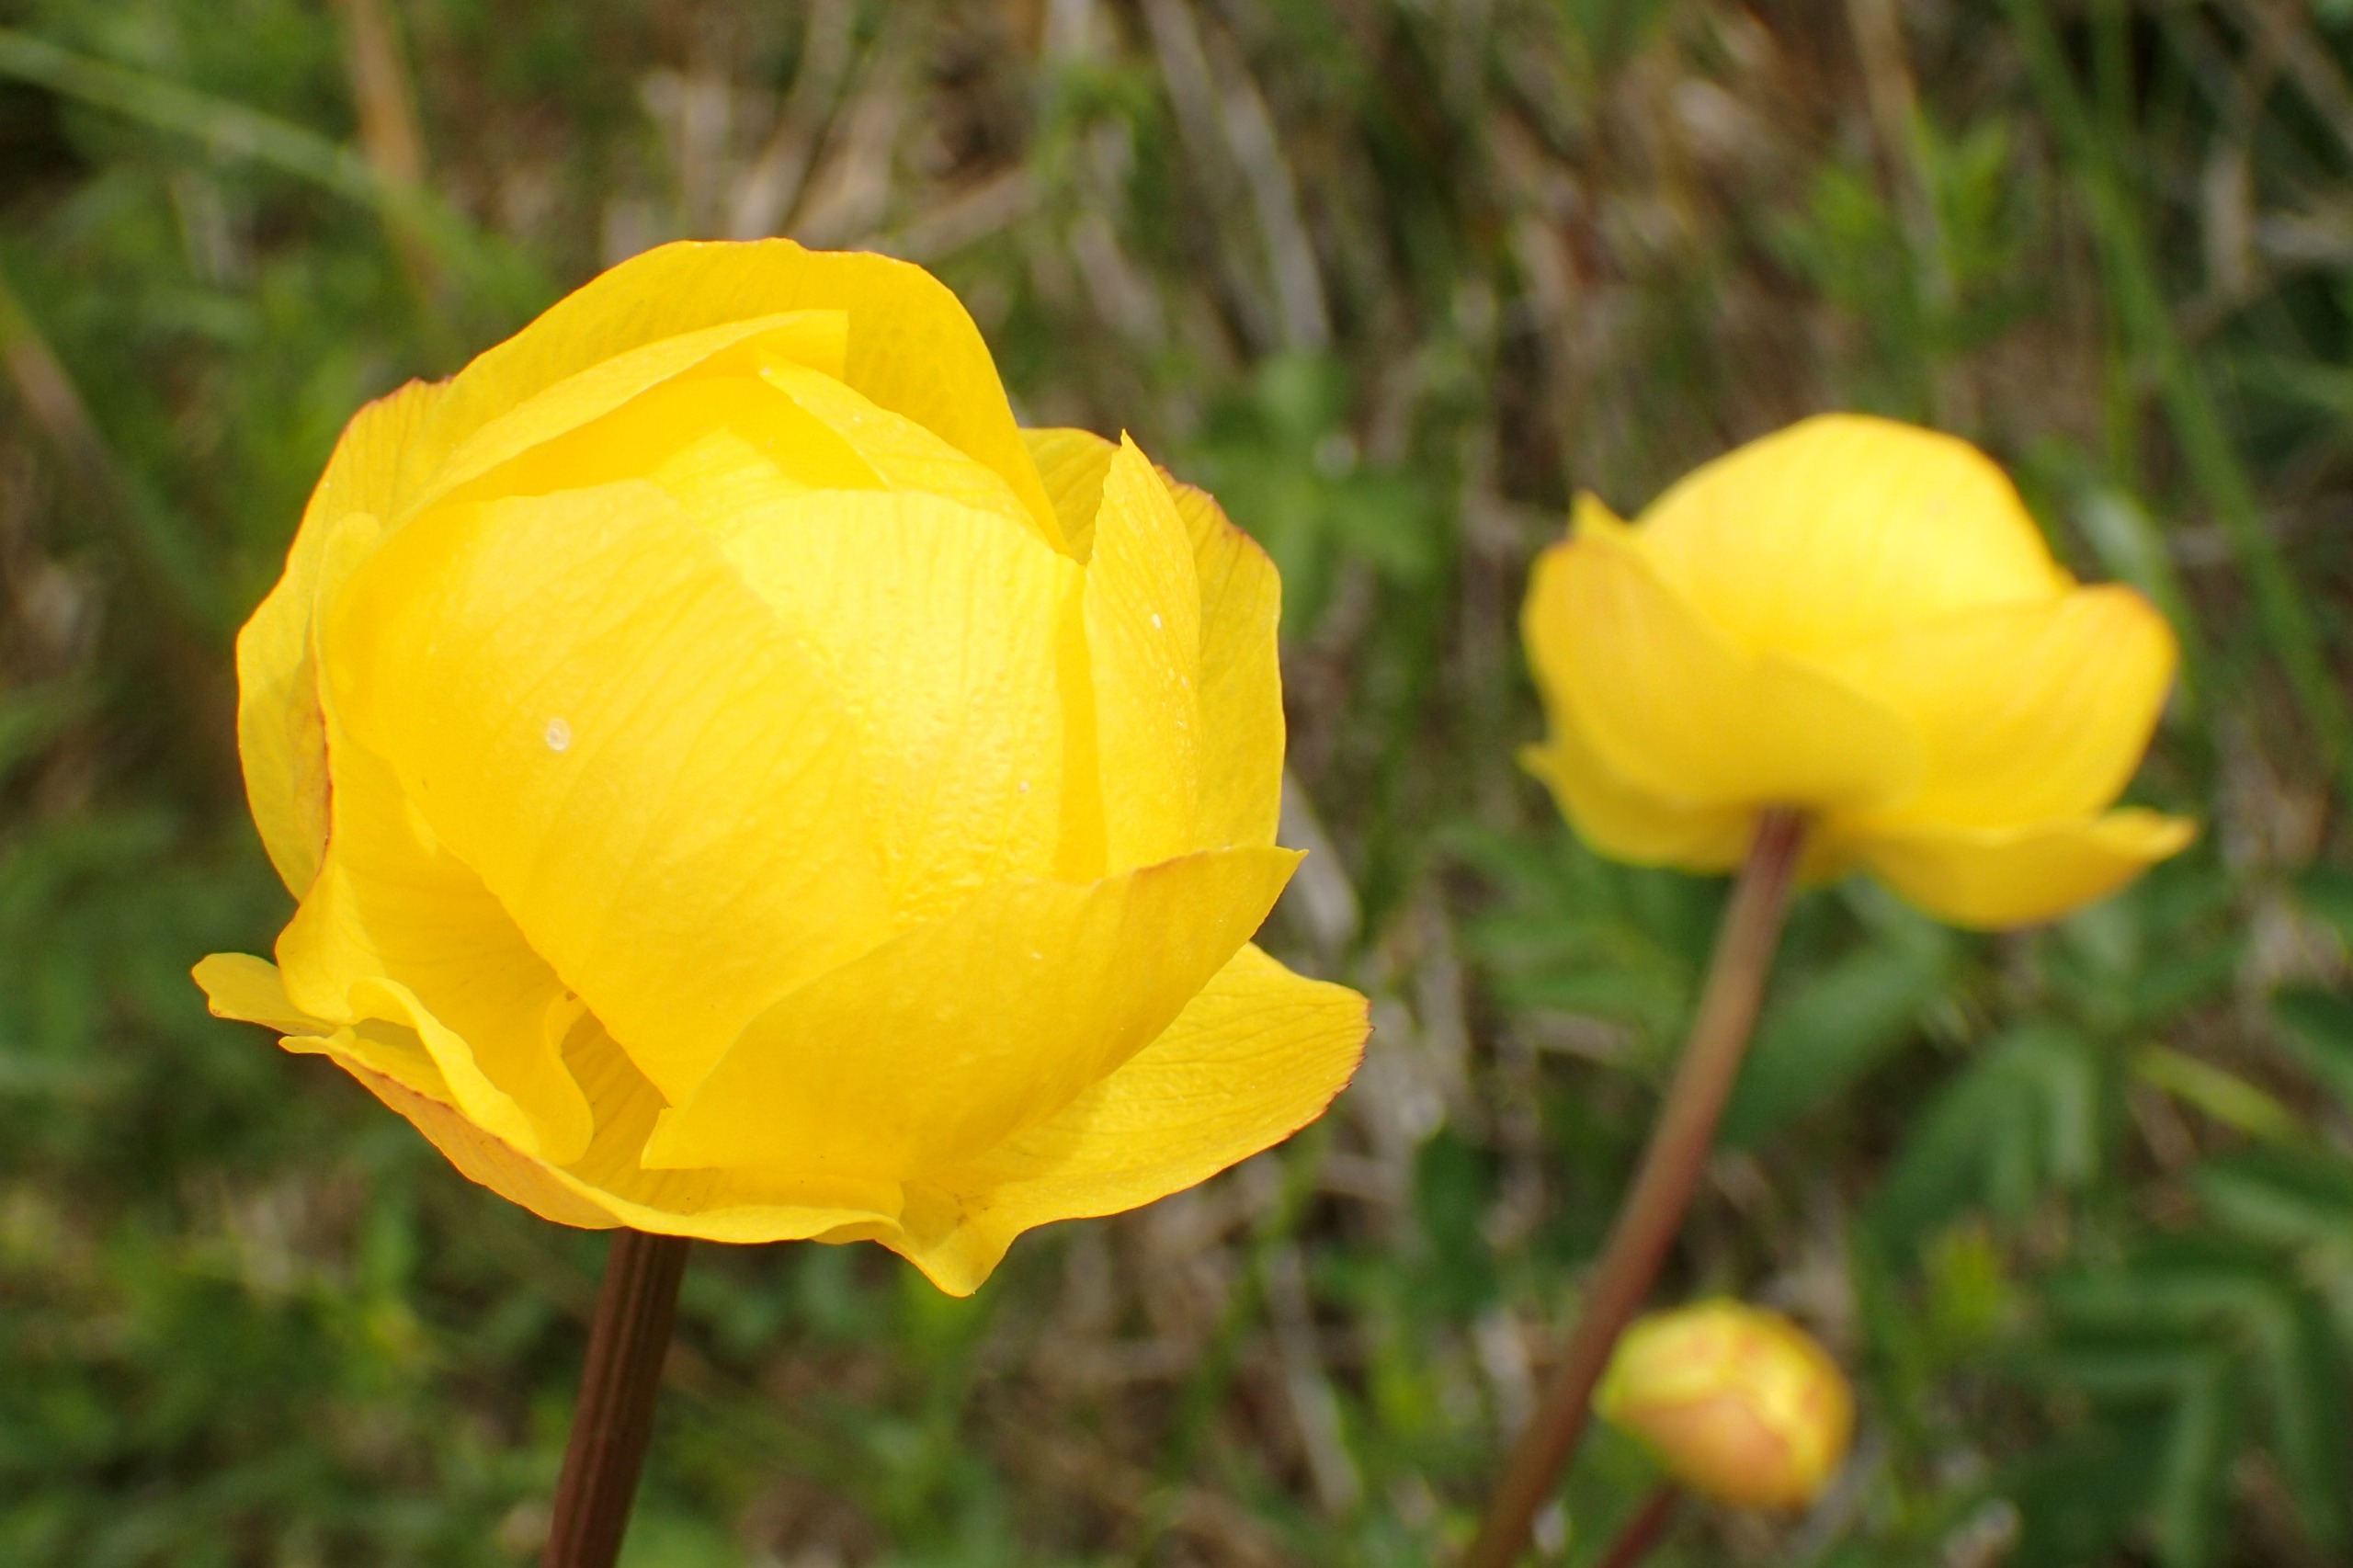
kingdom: Plantae
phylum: Tracheophyta
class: Magnoliopsida
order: Ranunculales
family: Ranunculaceae
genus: Trollius
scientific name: Trollius europaeus
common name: Engblomme
